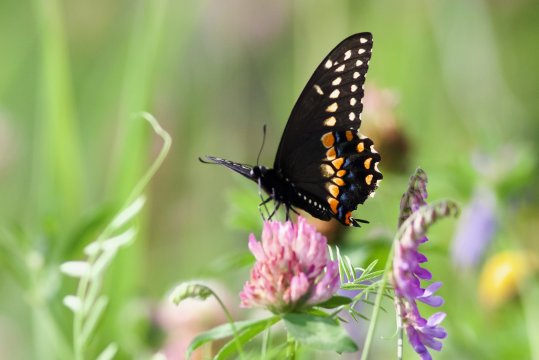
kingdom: Animalia
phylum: Arthropoda
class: Insecta
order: Lepidoptera
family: Papilionidae
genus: Papilio
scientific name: Papilio polyxenes
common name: Black Swallowtail
